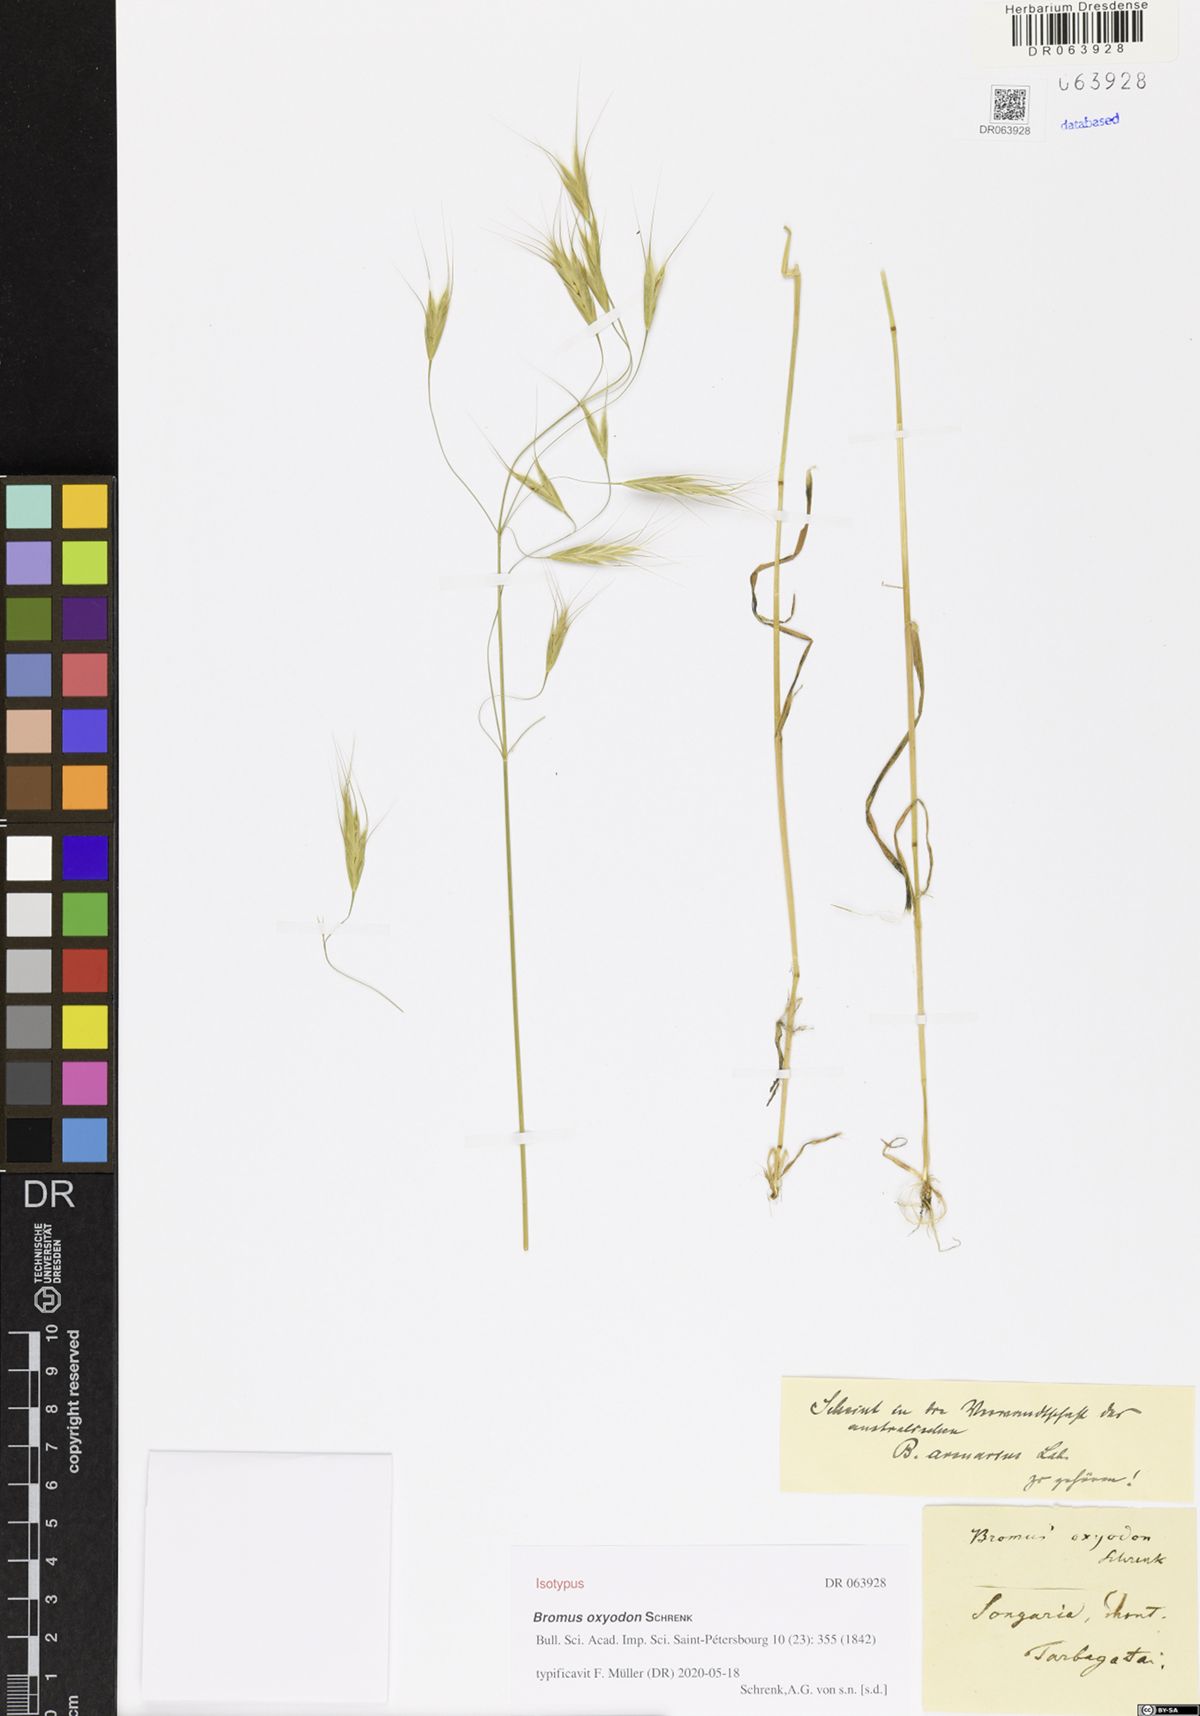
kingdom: Plantae
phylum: Tracheophyta
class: Liliopsida
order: Poales
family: Poaceae
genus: Bromus
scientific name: Bromus oxyodon
